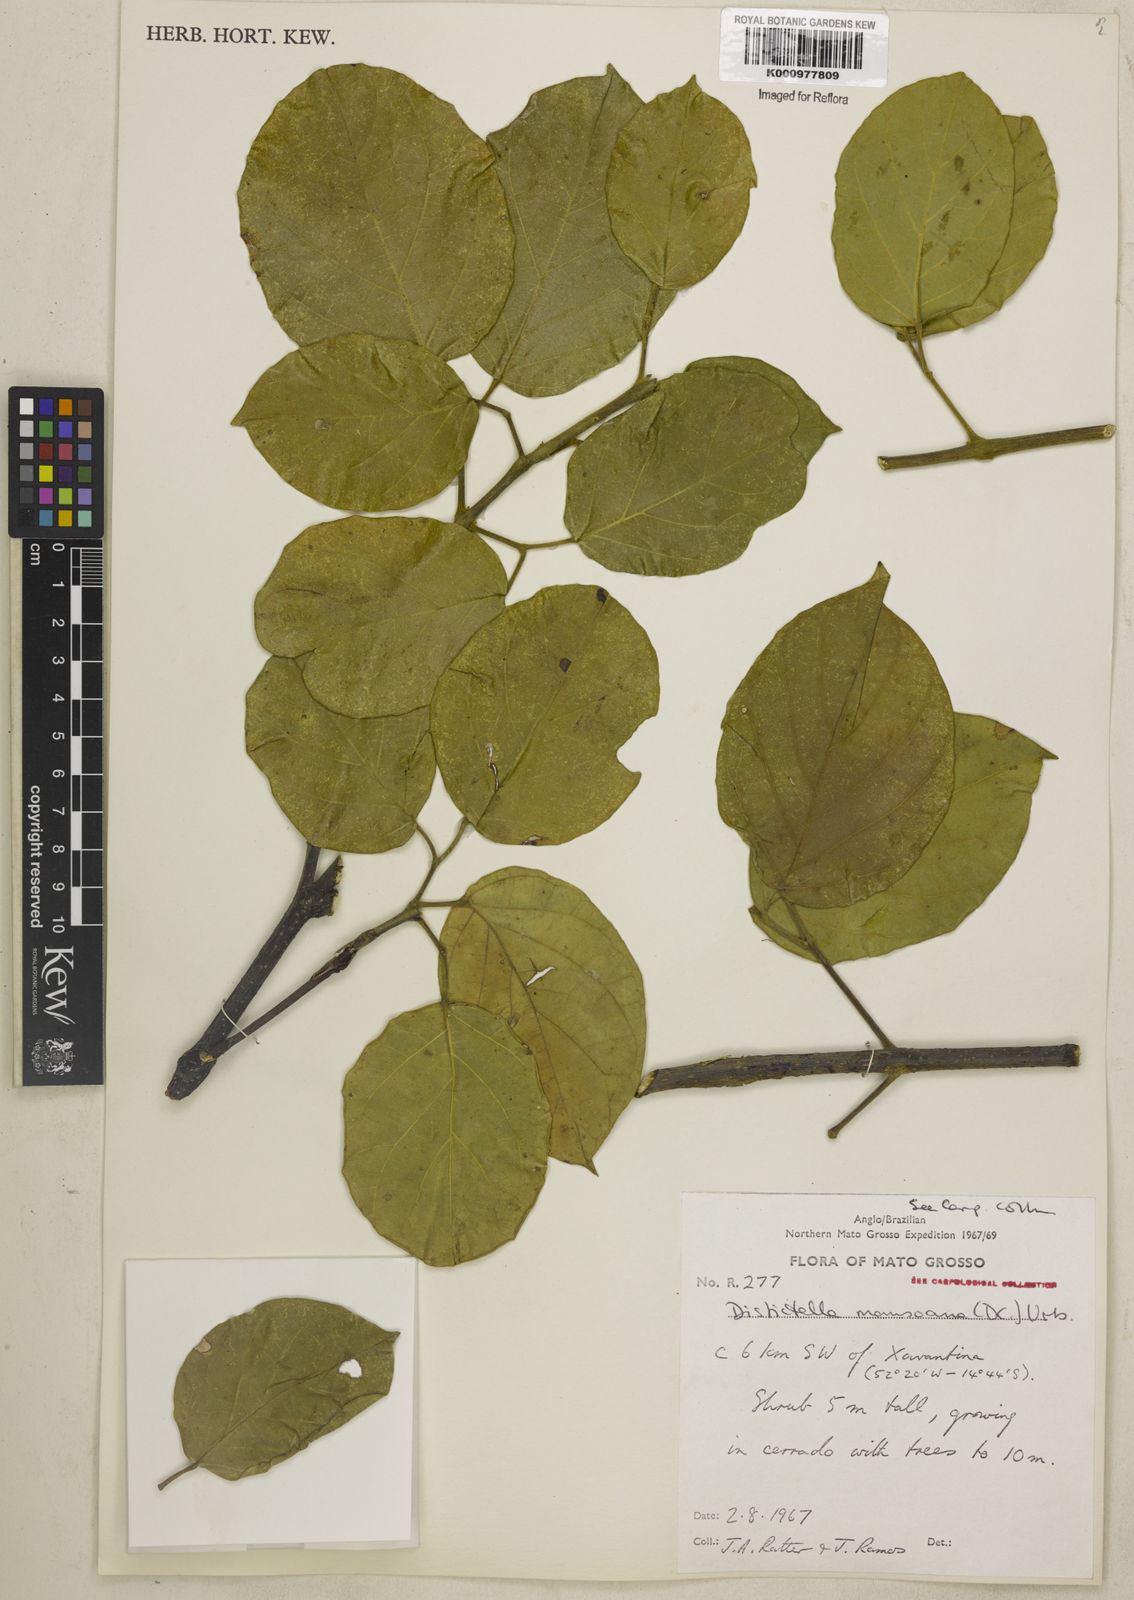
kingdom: Plantae
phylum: Tracheophyta
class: Magnoliopsida
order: Lamiales
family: Bignoniaceae
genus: Amphilophium
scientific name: Amphilophium mansoanum
